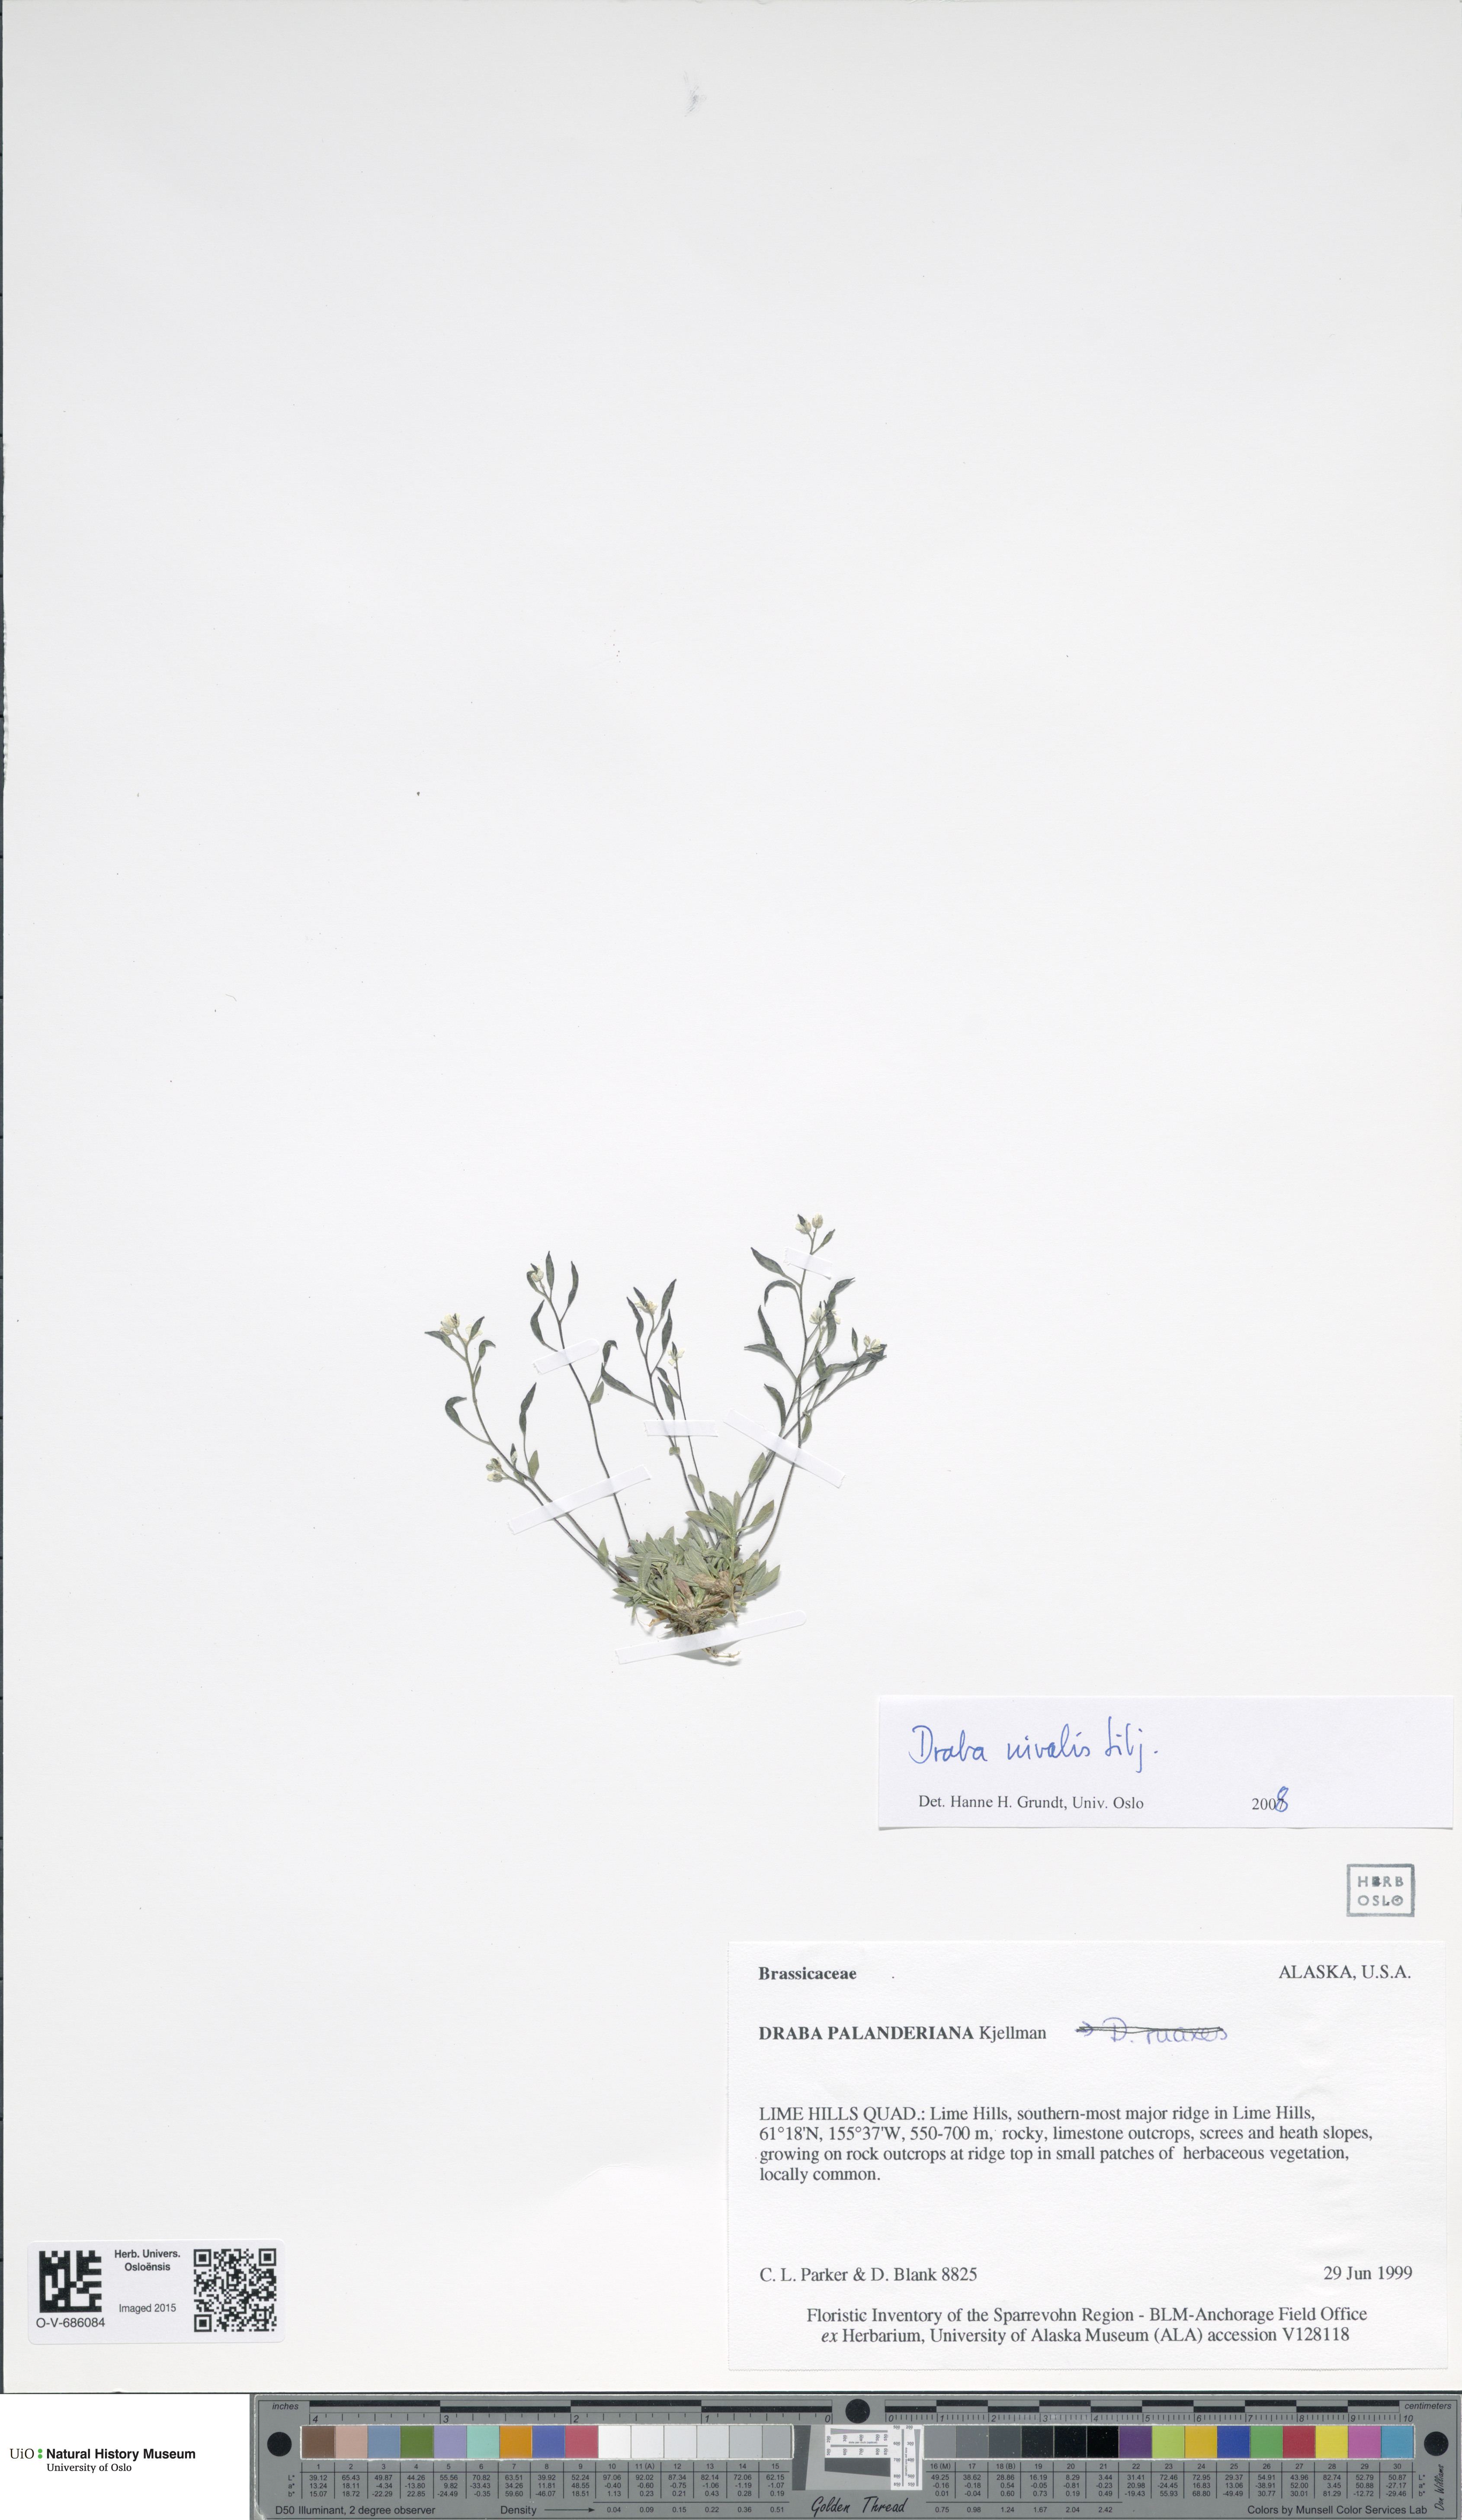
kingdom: Plantae
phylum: Tracheophyta
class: Magnoliopsida
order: Brassicales
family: Brassicaceae
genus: Draba
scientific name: Draba nivalis
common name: Snow draba
